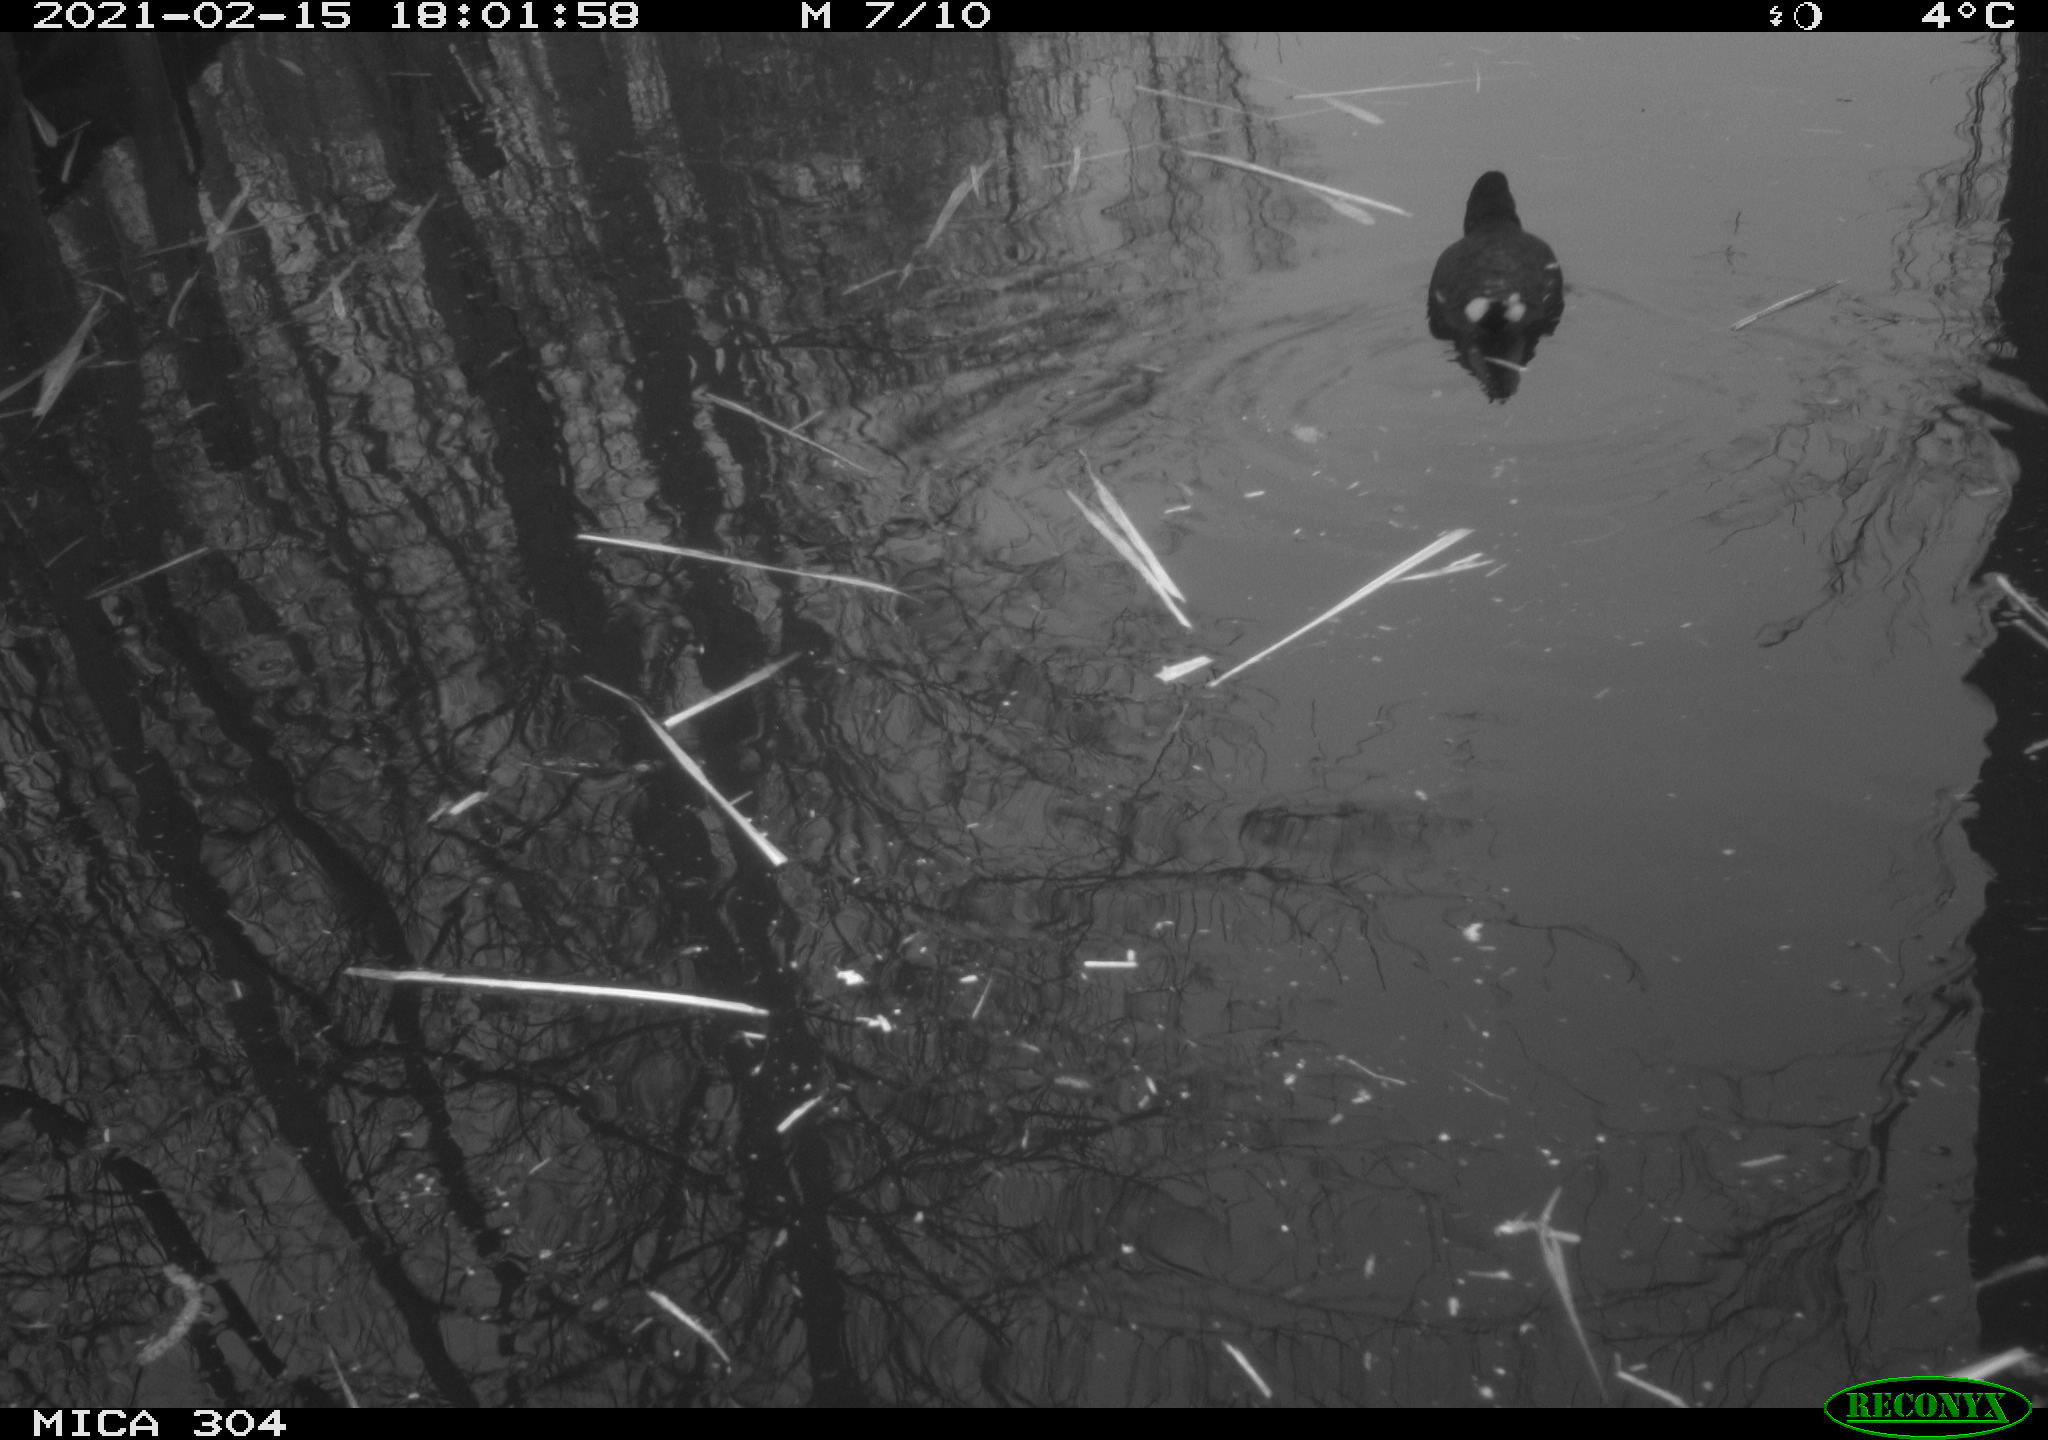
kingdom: Animalia
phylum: Chordata
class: Aves
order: Gruiformes
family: Rallidae
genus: Gallinula
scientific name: Gallinula chloropus
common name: Common moorhen
